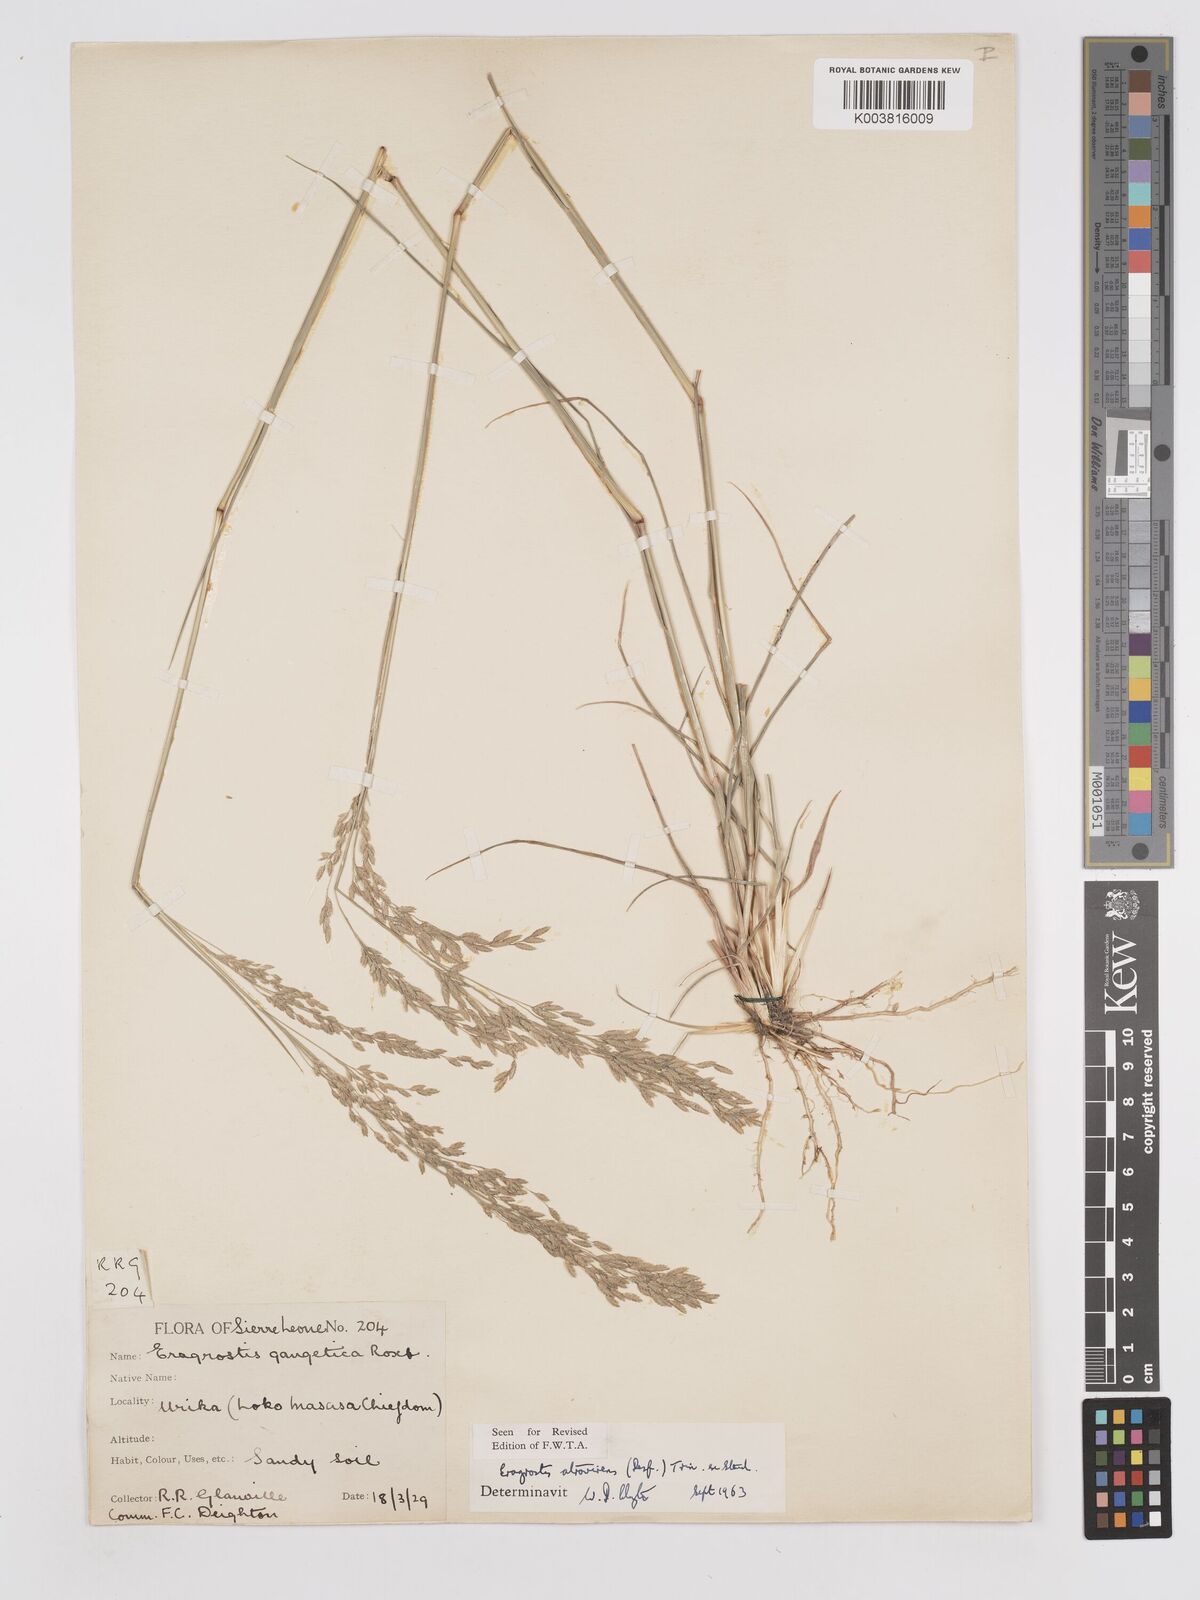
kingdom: Plantae
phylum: Tracheophyta
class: Liliopsida
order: Poales
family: Poaceae
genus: Eragrostis
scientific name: Eragrostis atrovirens
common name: Thalia lovegrass
